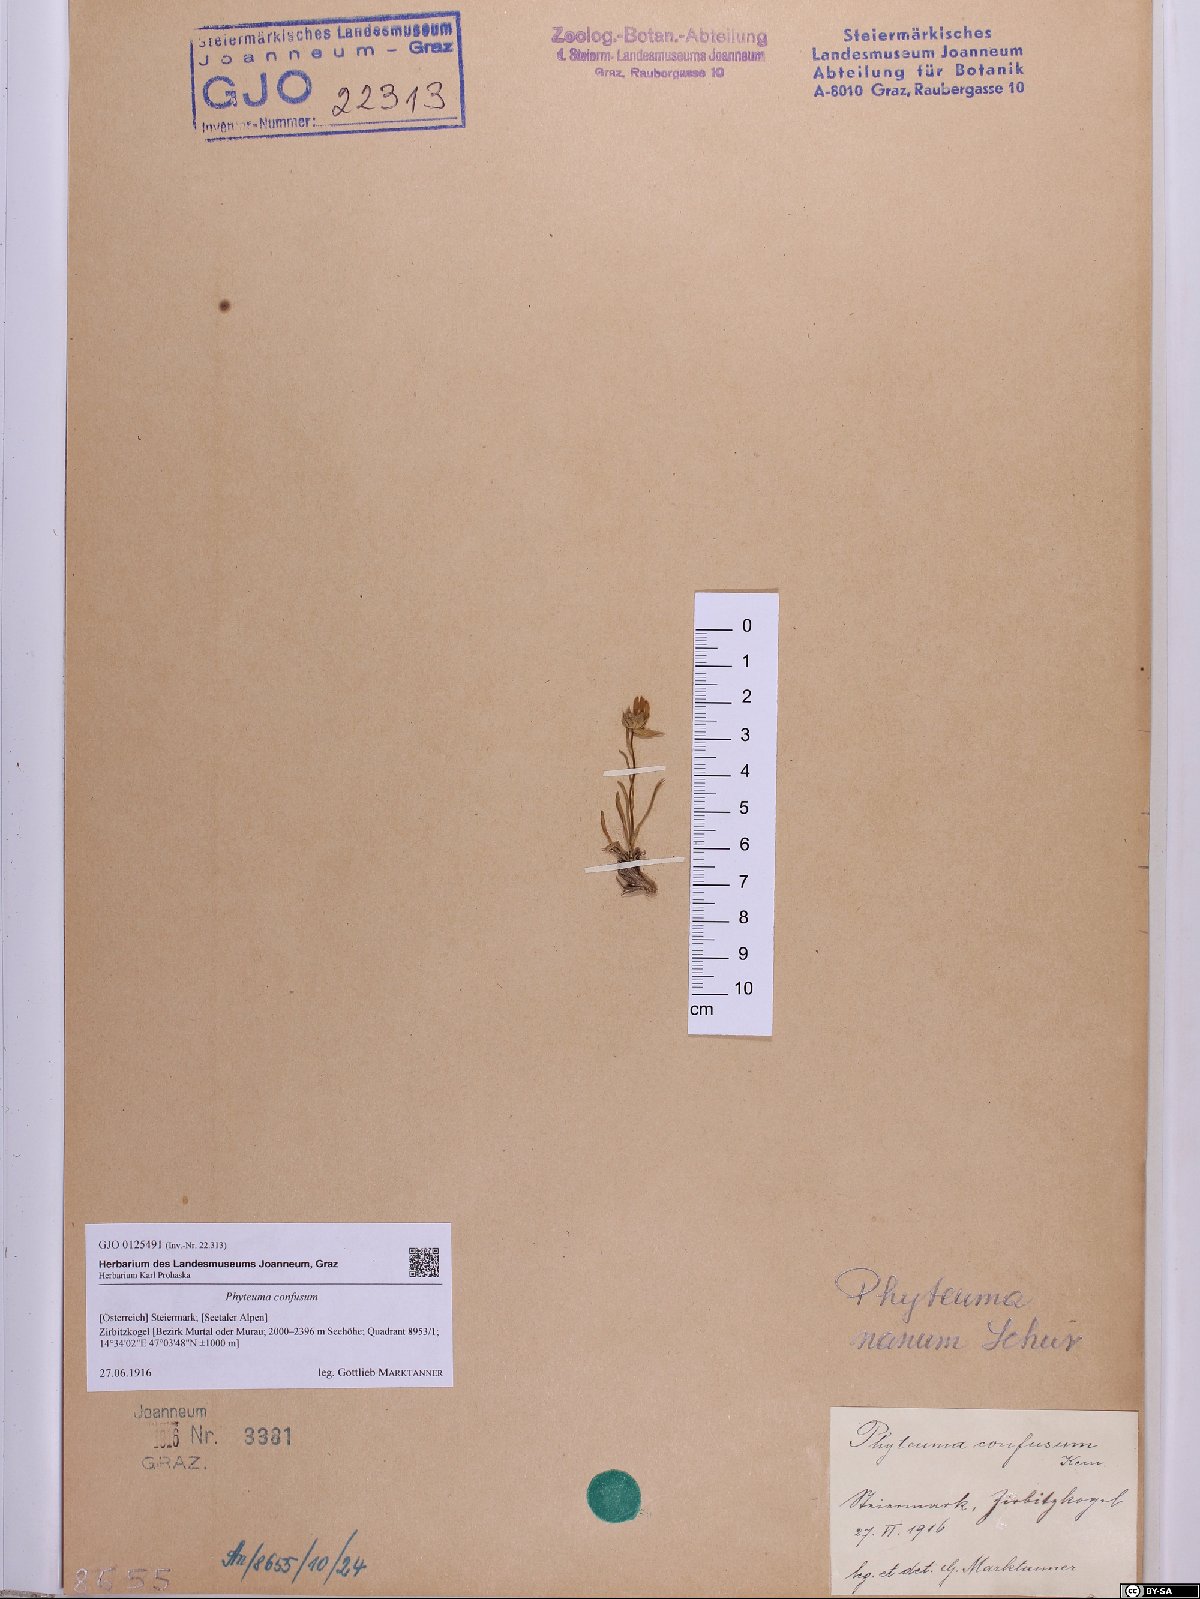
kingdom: Plantae
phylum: Tracheophyta
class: Magnoliopsida
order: Asterales
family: Campanulaceae
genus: Phyteuma
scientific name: Phyteuma confusum
